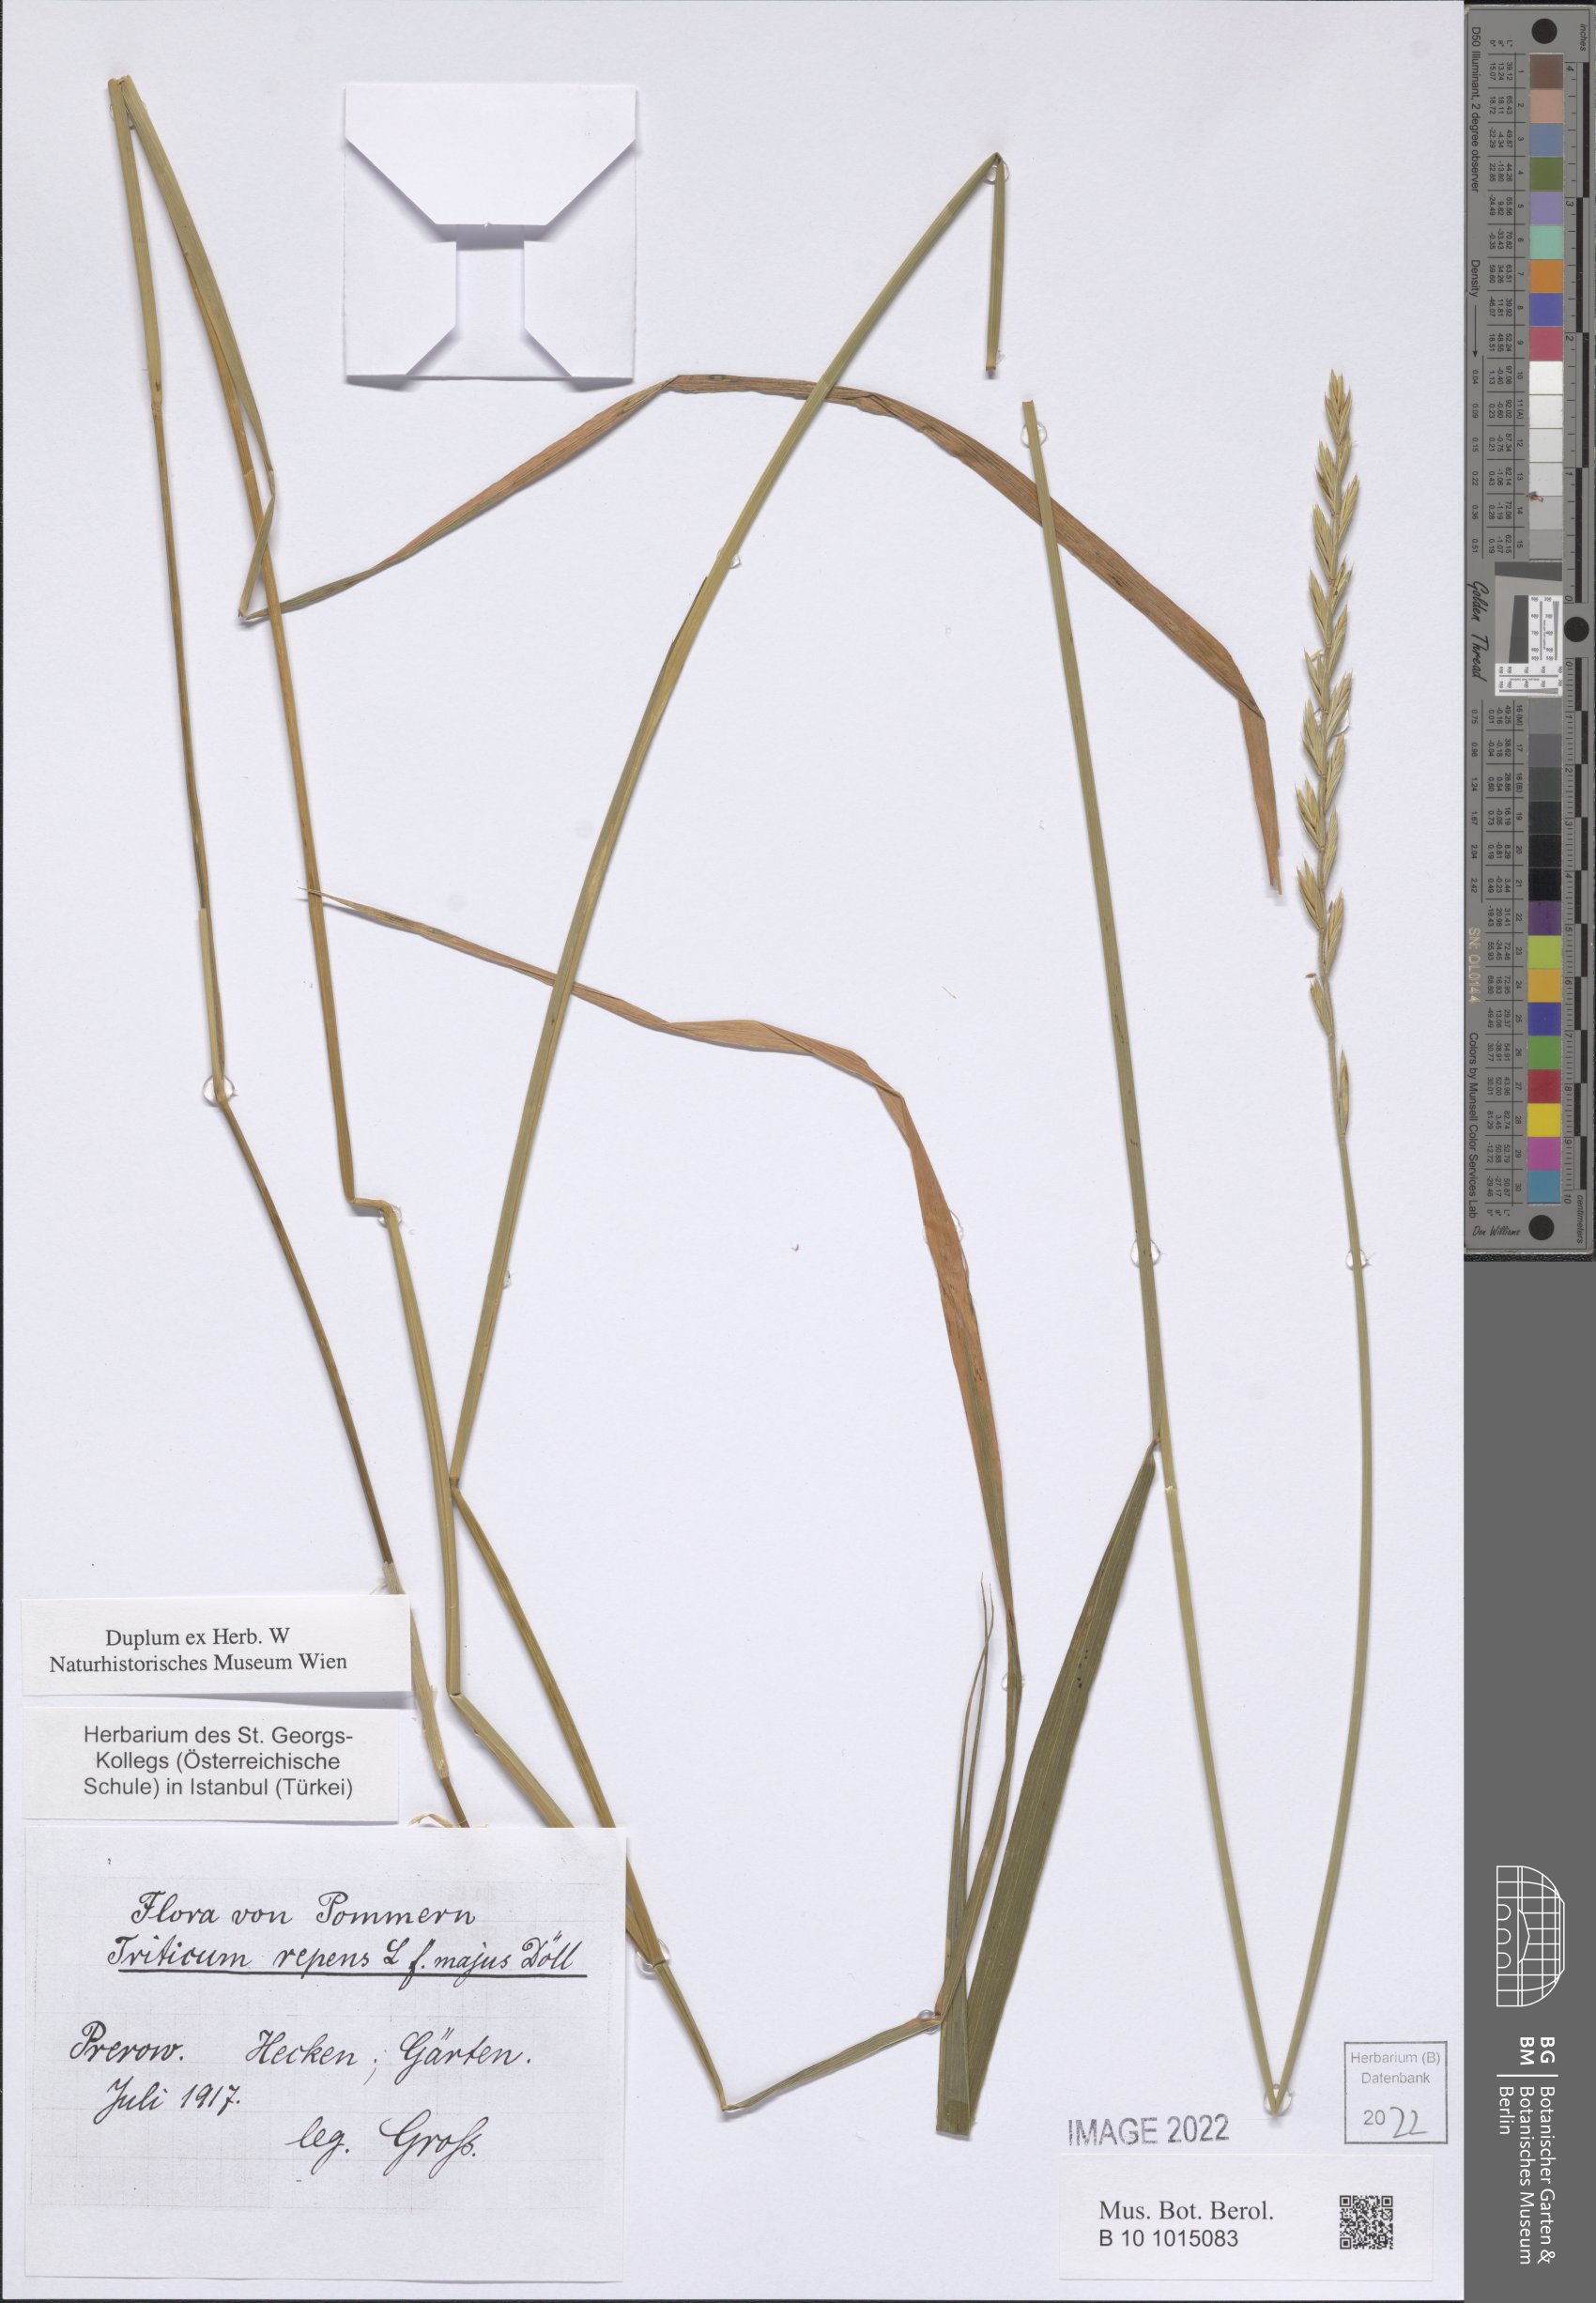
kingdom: Plantae
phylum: Tracheophyta
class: Liliopsida
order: Poales
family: Poaceae
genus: Elymus
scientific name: Elymus repens
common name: Quackgrass
